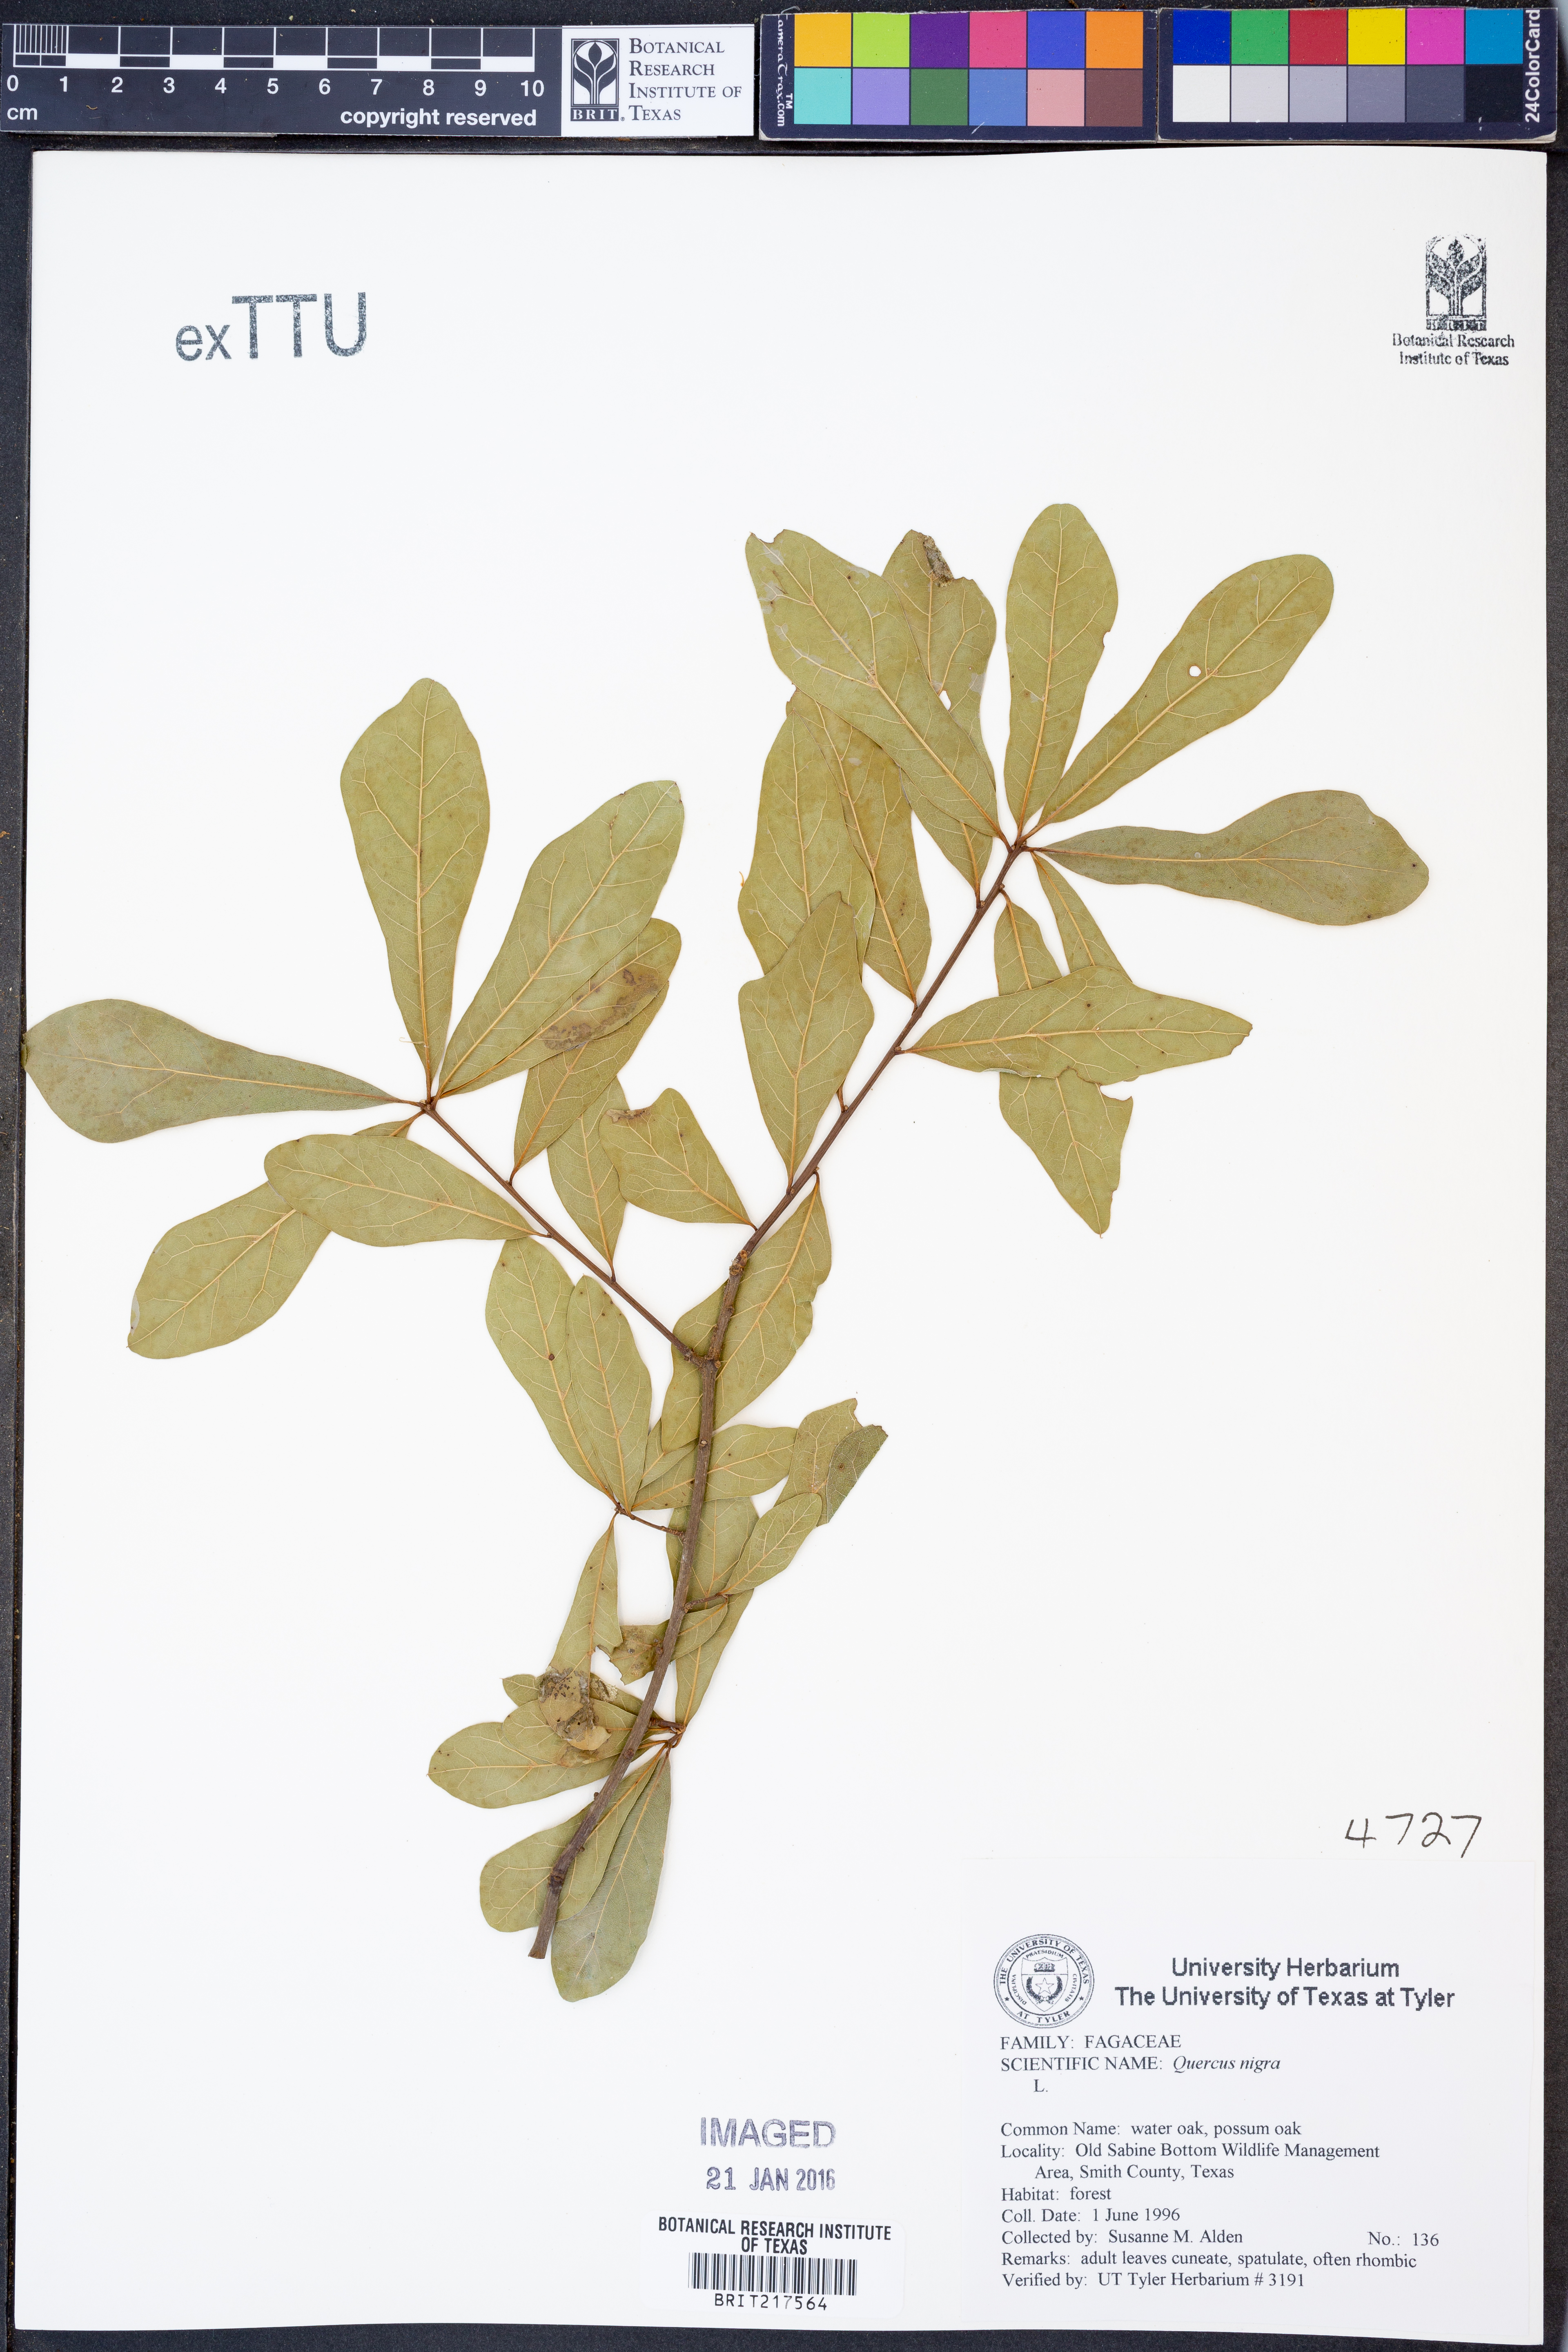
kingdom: Plantae
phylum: Tracheophyta
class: Magnoliopsida
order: Fagales
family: Fagaceae
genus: Quercus
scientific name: Quercus nigra
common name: Water oak
